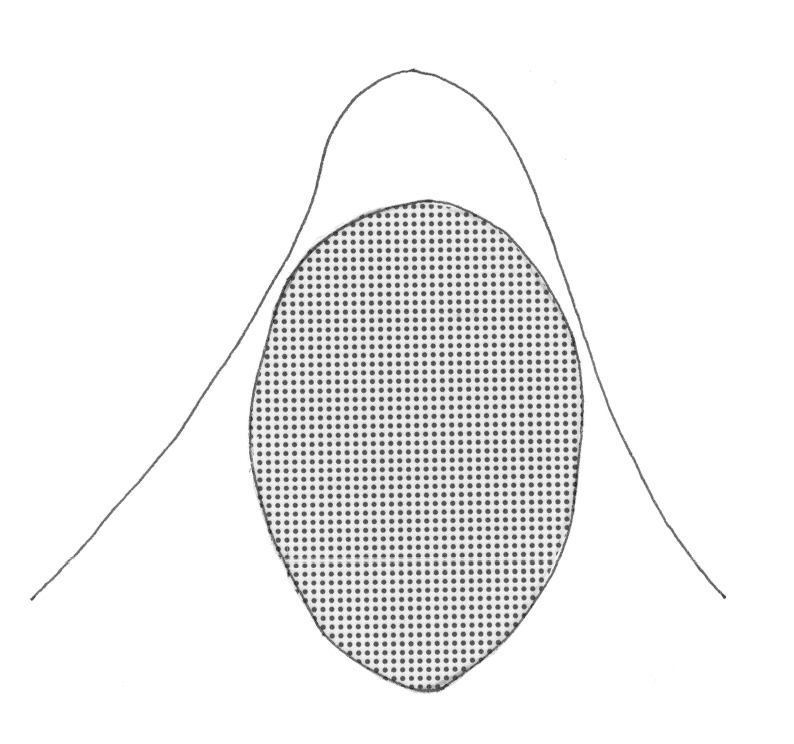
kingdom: Animalia
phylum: Chordata
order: Perciformes
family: Serranidae
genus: Odontanthias
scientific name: Odontanthias wassi
